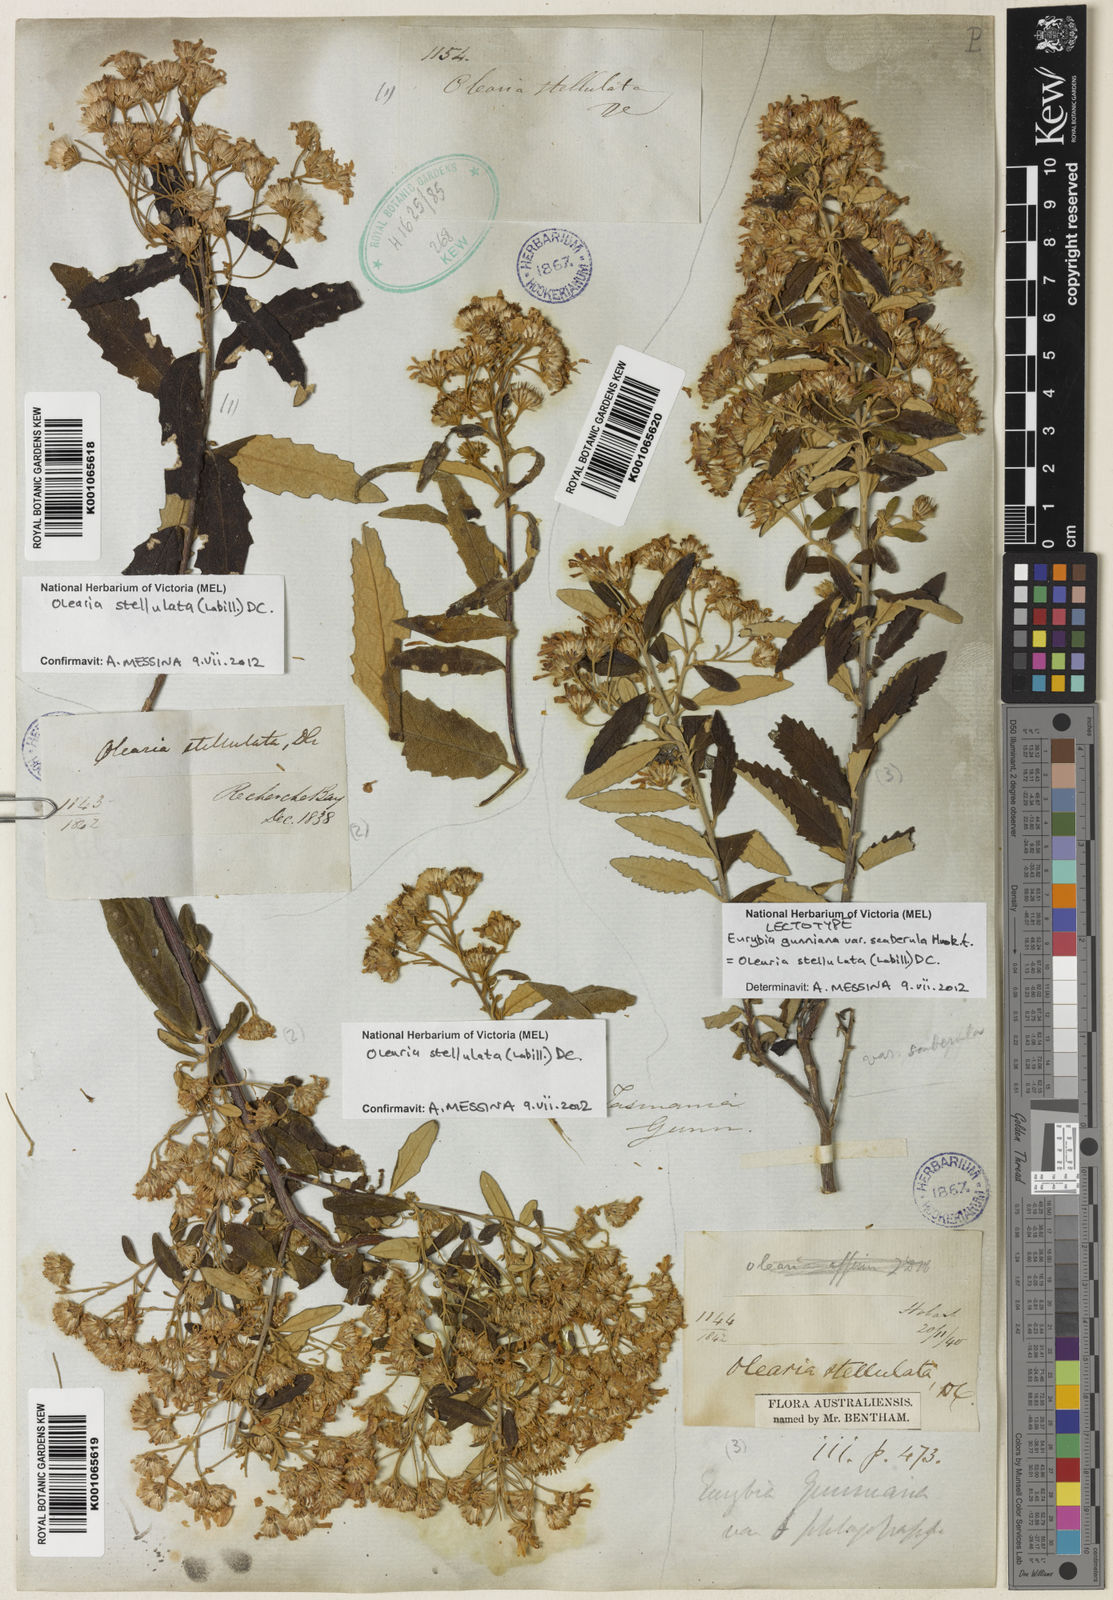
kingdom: Plantae
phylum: Tracheophyta
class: Magnoliopsida
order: Asterales
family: Asteraceae
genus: Olearia
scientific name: Olearia phlogopappa
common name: Alpine daisybush
